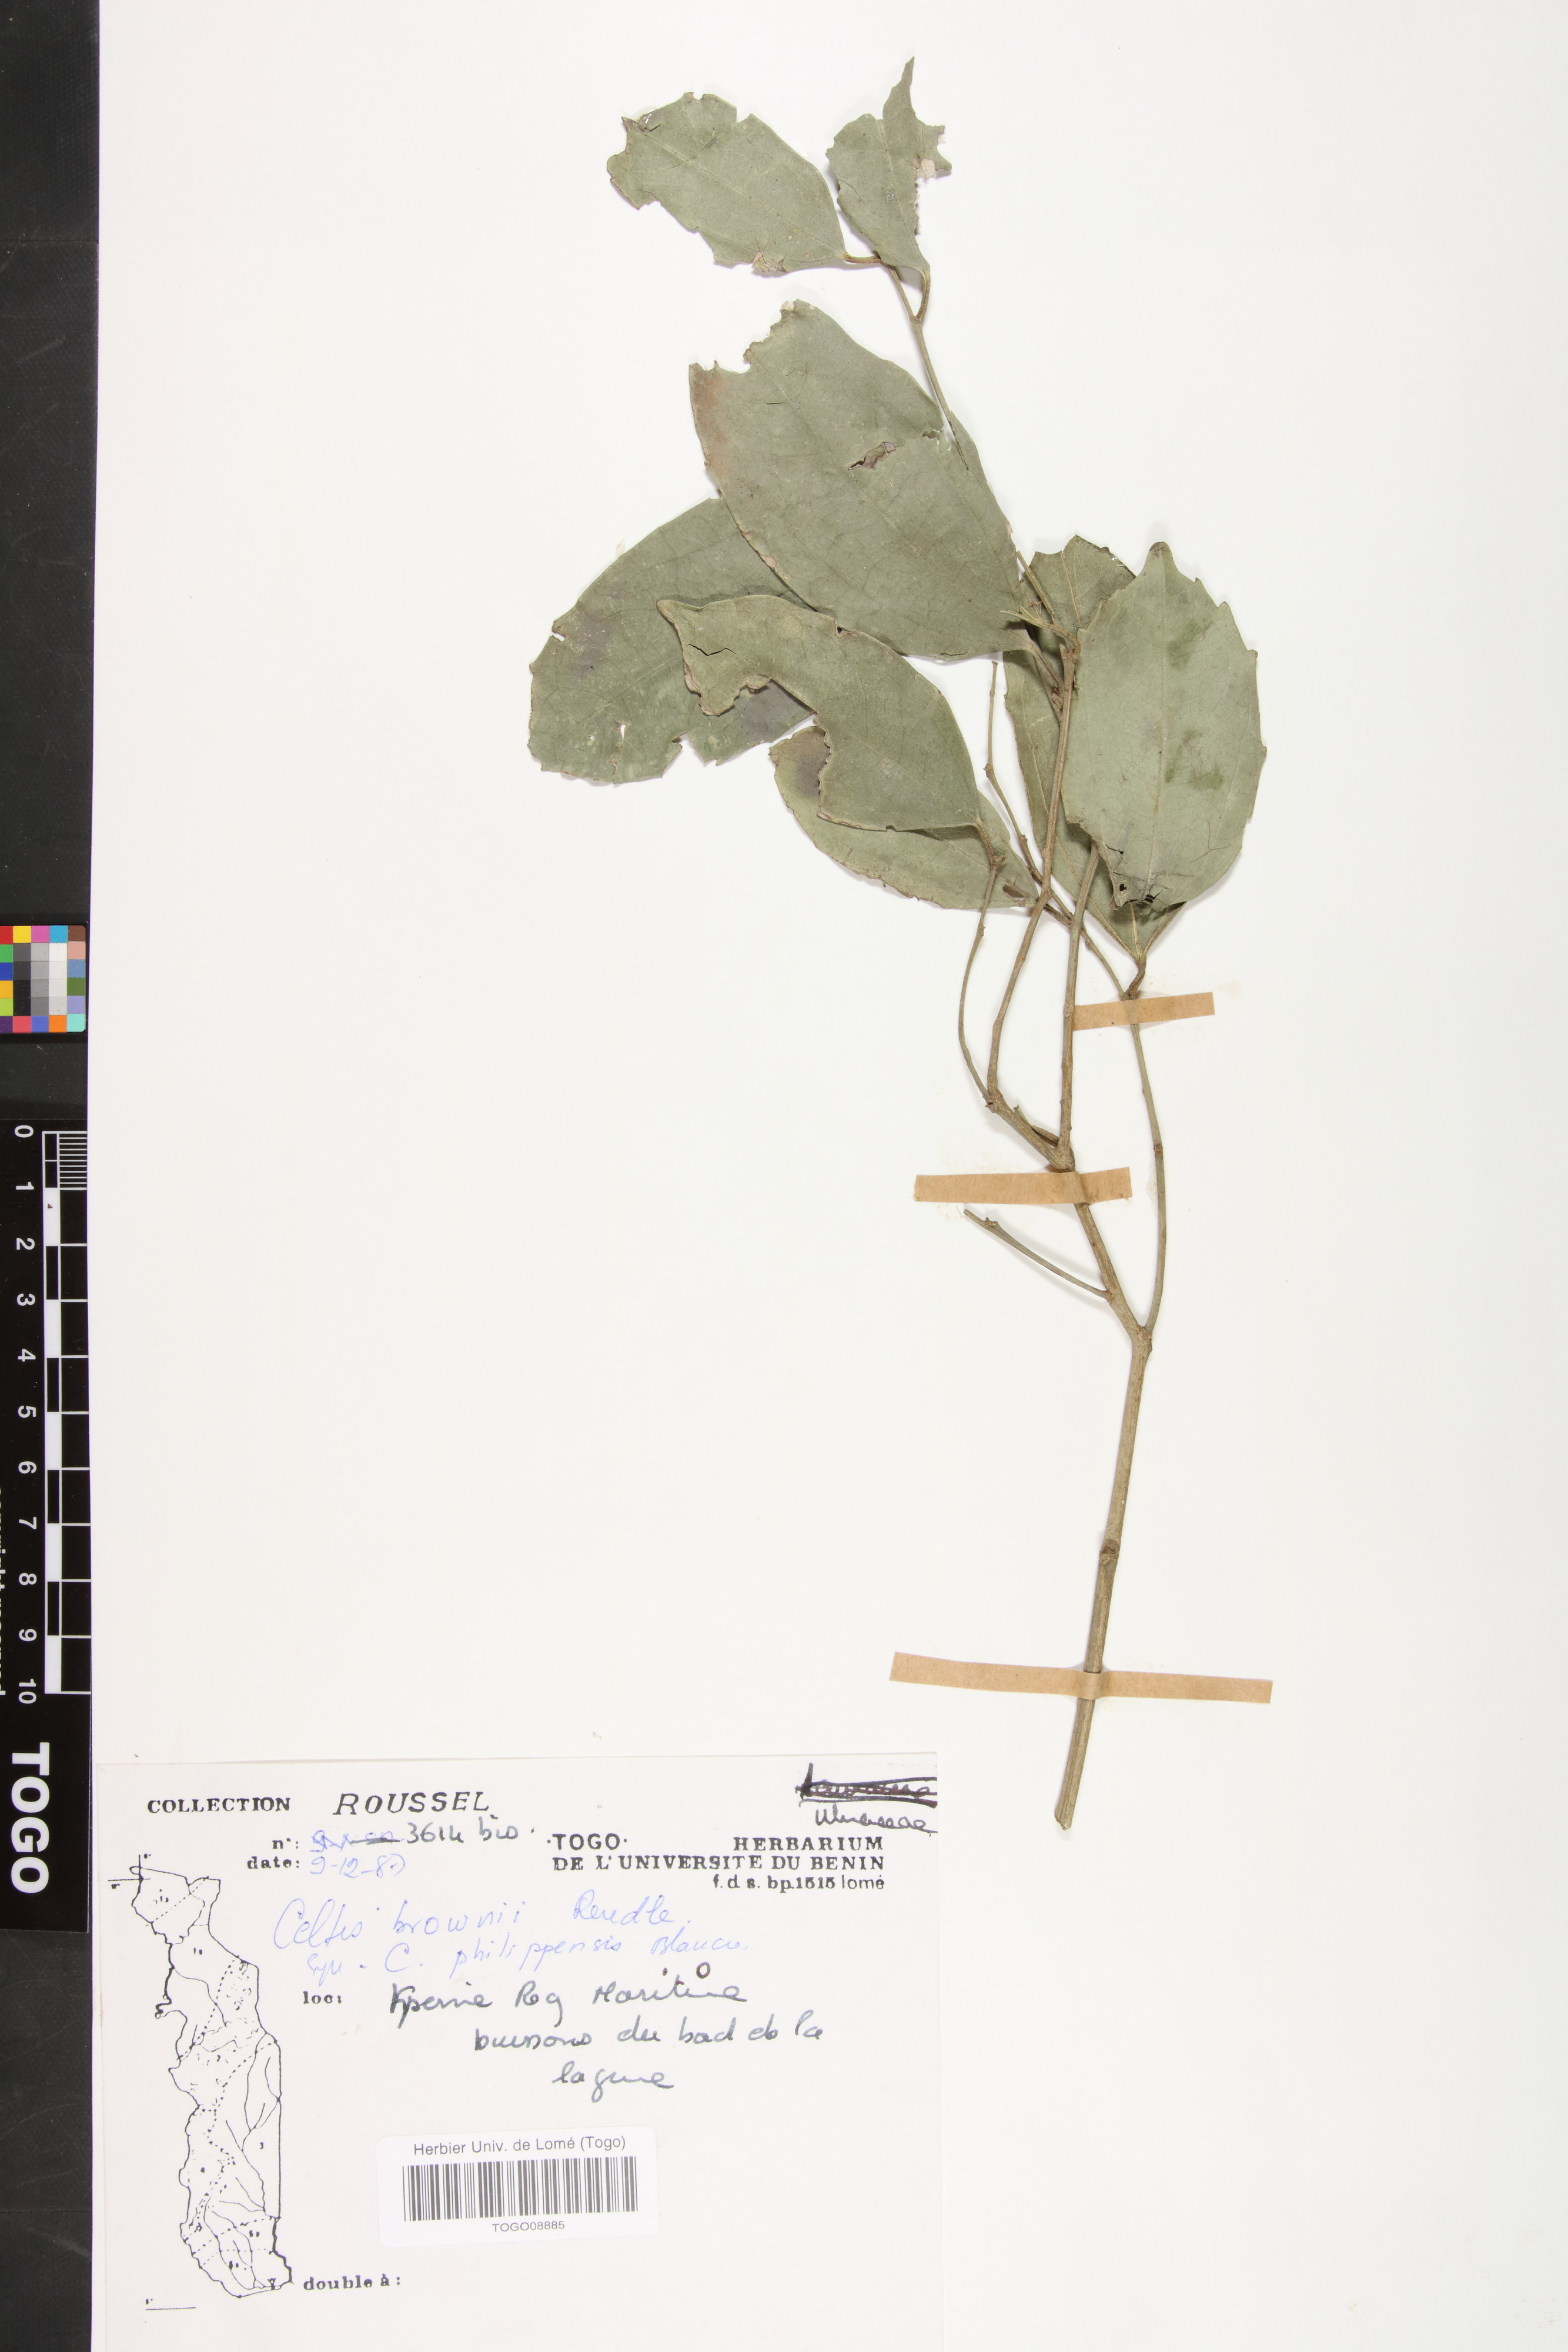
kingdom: Plantae
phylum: Tracheophyta
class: Magnoliopsida
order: Rosales
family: Cannabaceae
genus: Celtis
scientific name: Celtis philippensis
